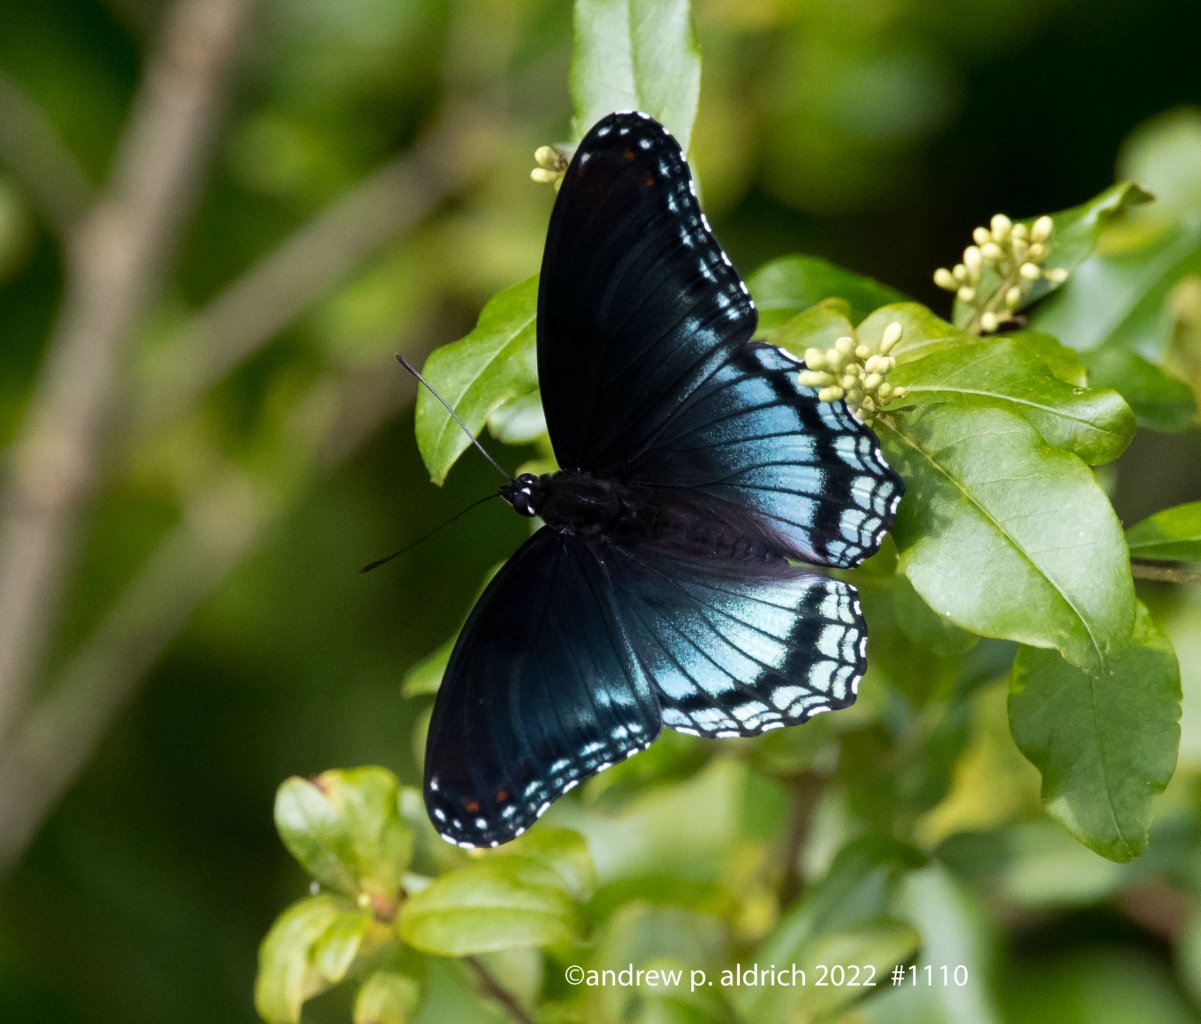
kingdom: Animalia
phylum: Arthropoda
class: Insecta
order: Lepidoptera
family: Nymphalidae
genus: Limenitis
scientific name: Limenitis arthemis
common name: Red-spotted Admiral
